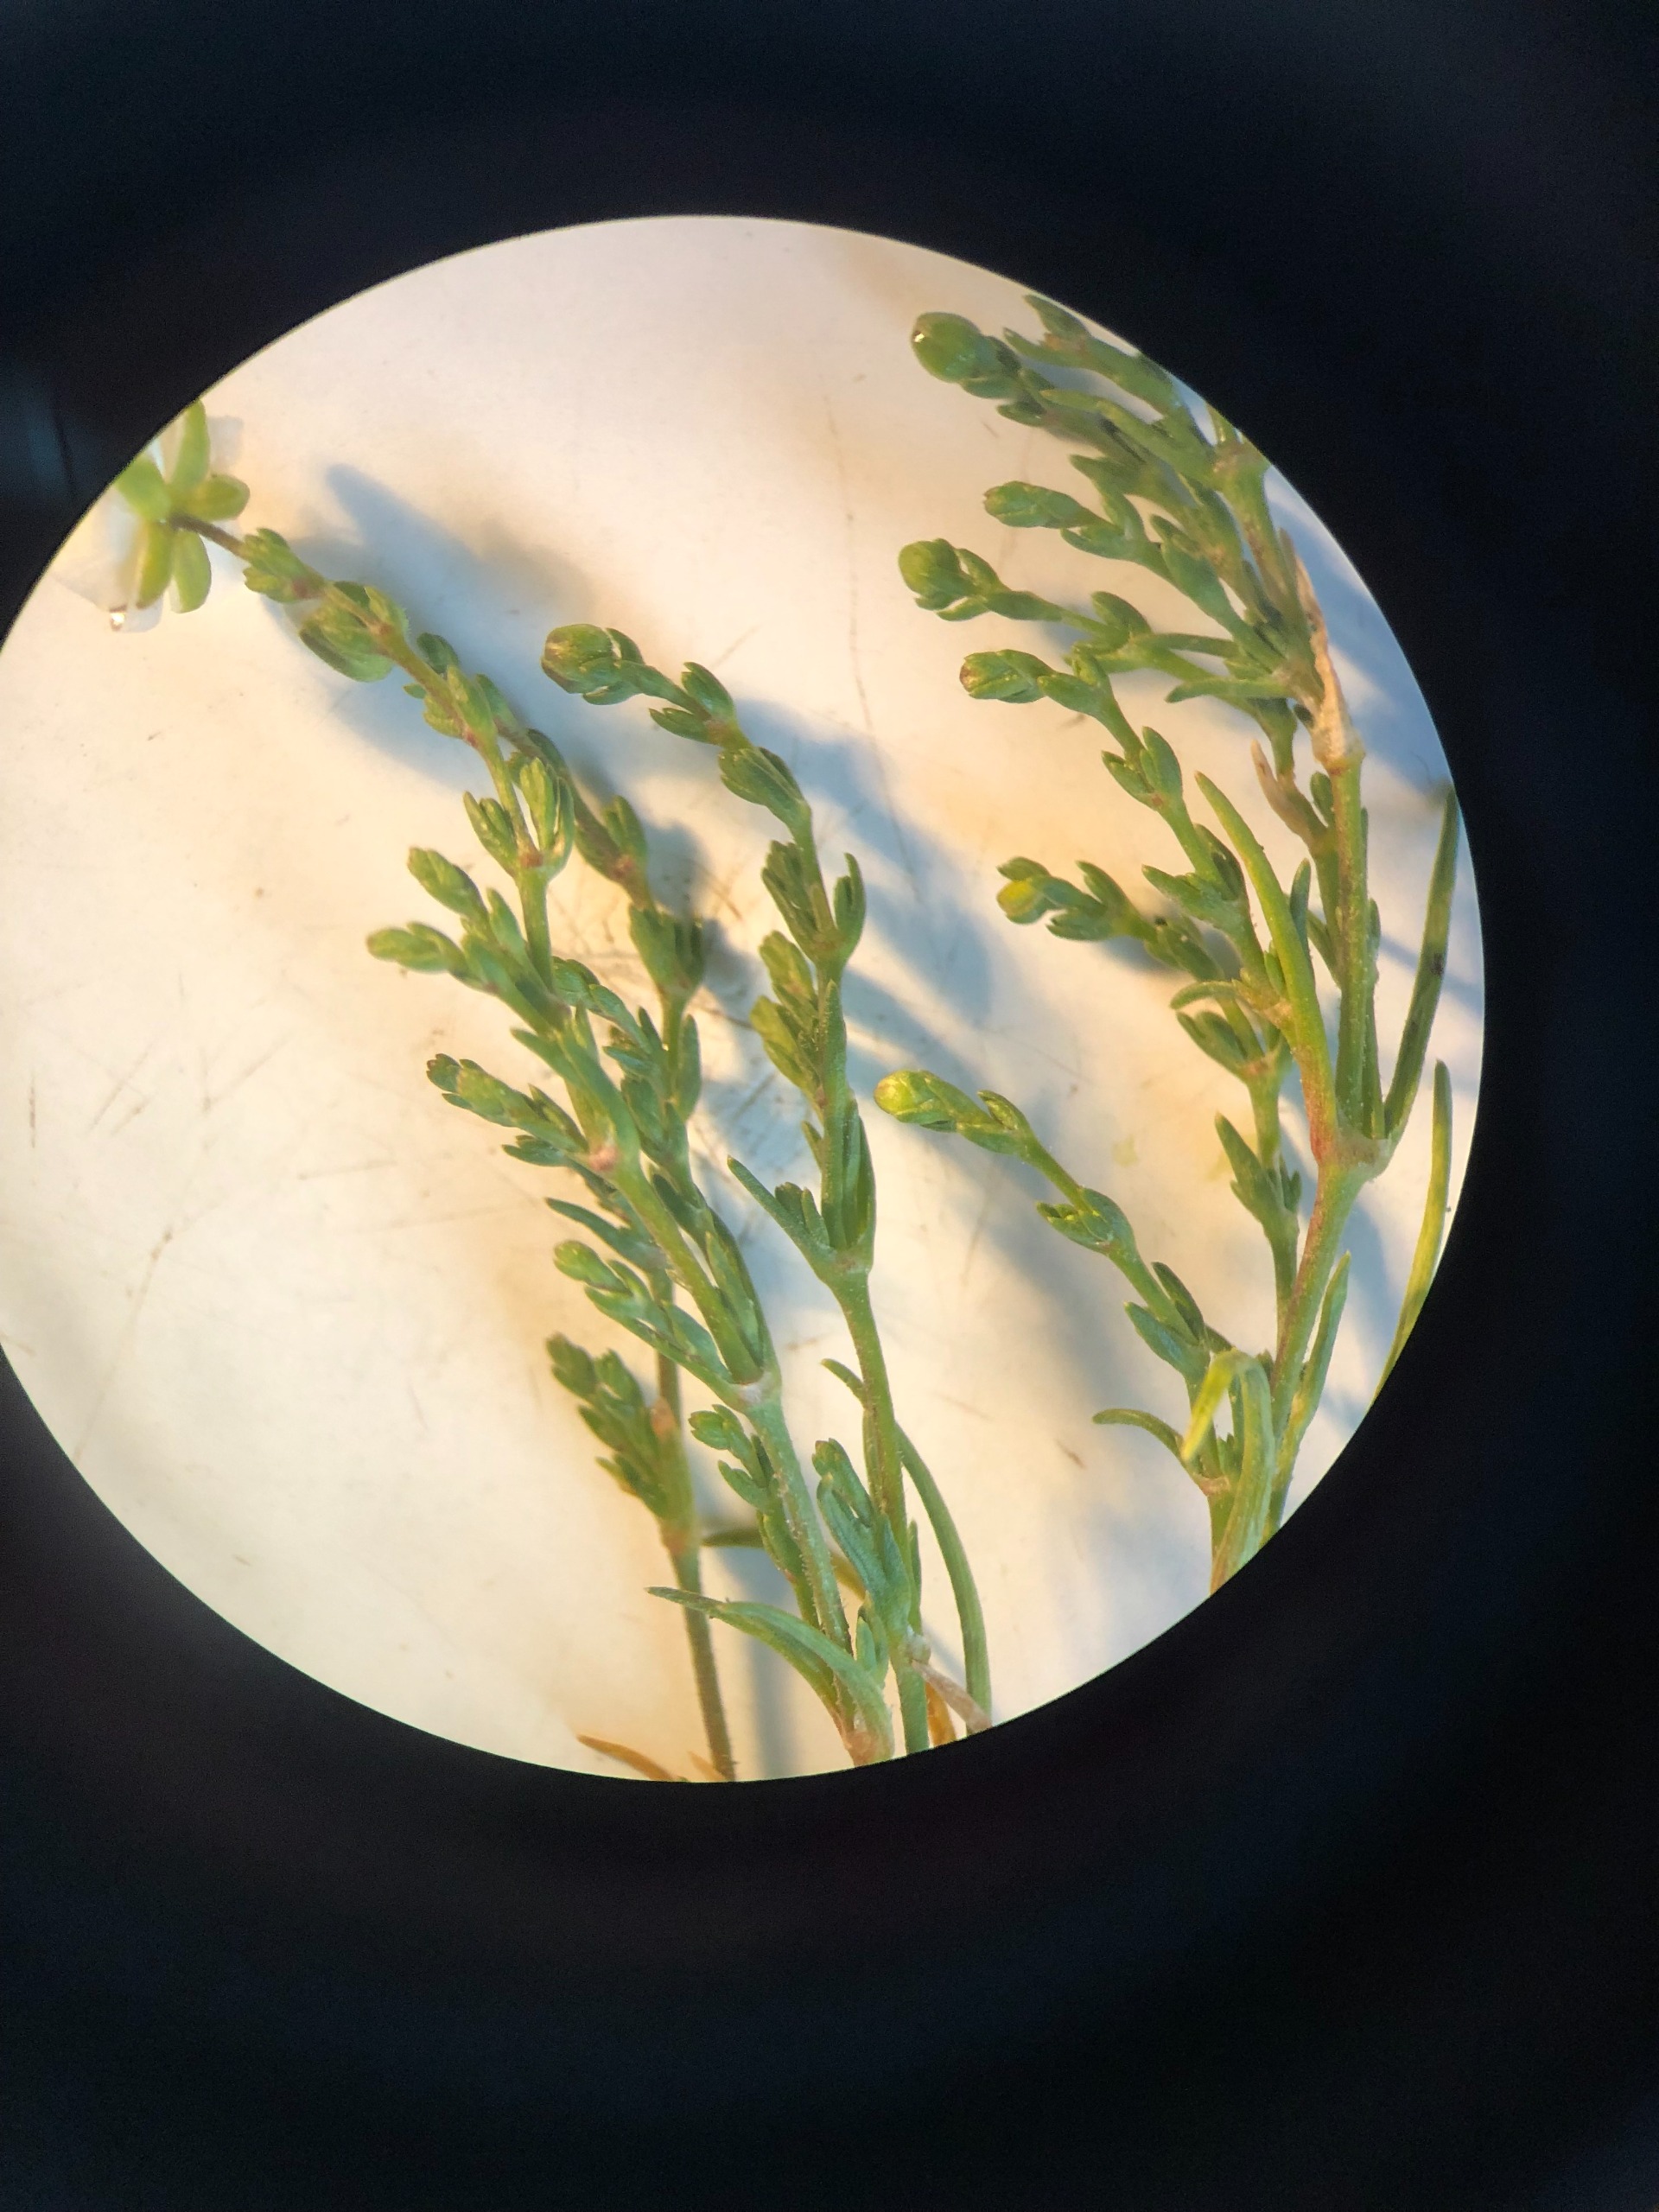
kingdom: Plantae
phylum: Tracheophyta
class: Magnoliopsida
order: Caryophyllales
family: Caryophyllaceae
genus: Sagina
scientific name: Sagina nodosa
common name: Knude-firling
